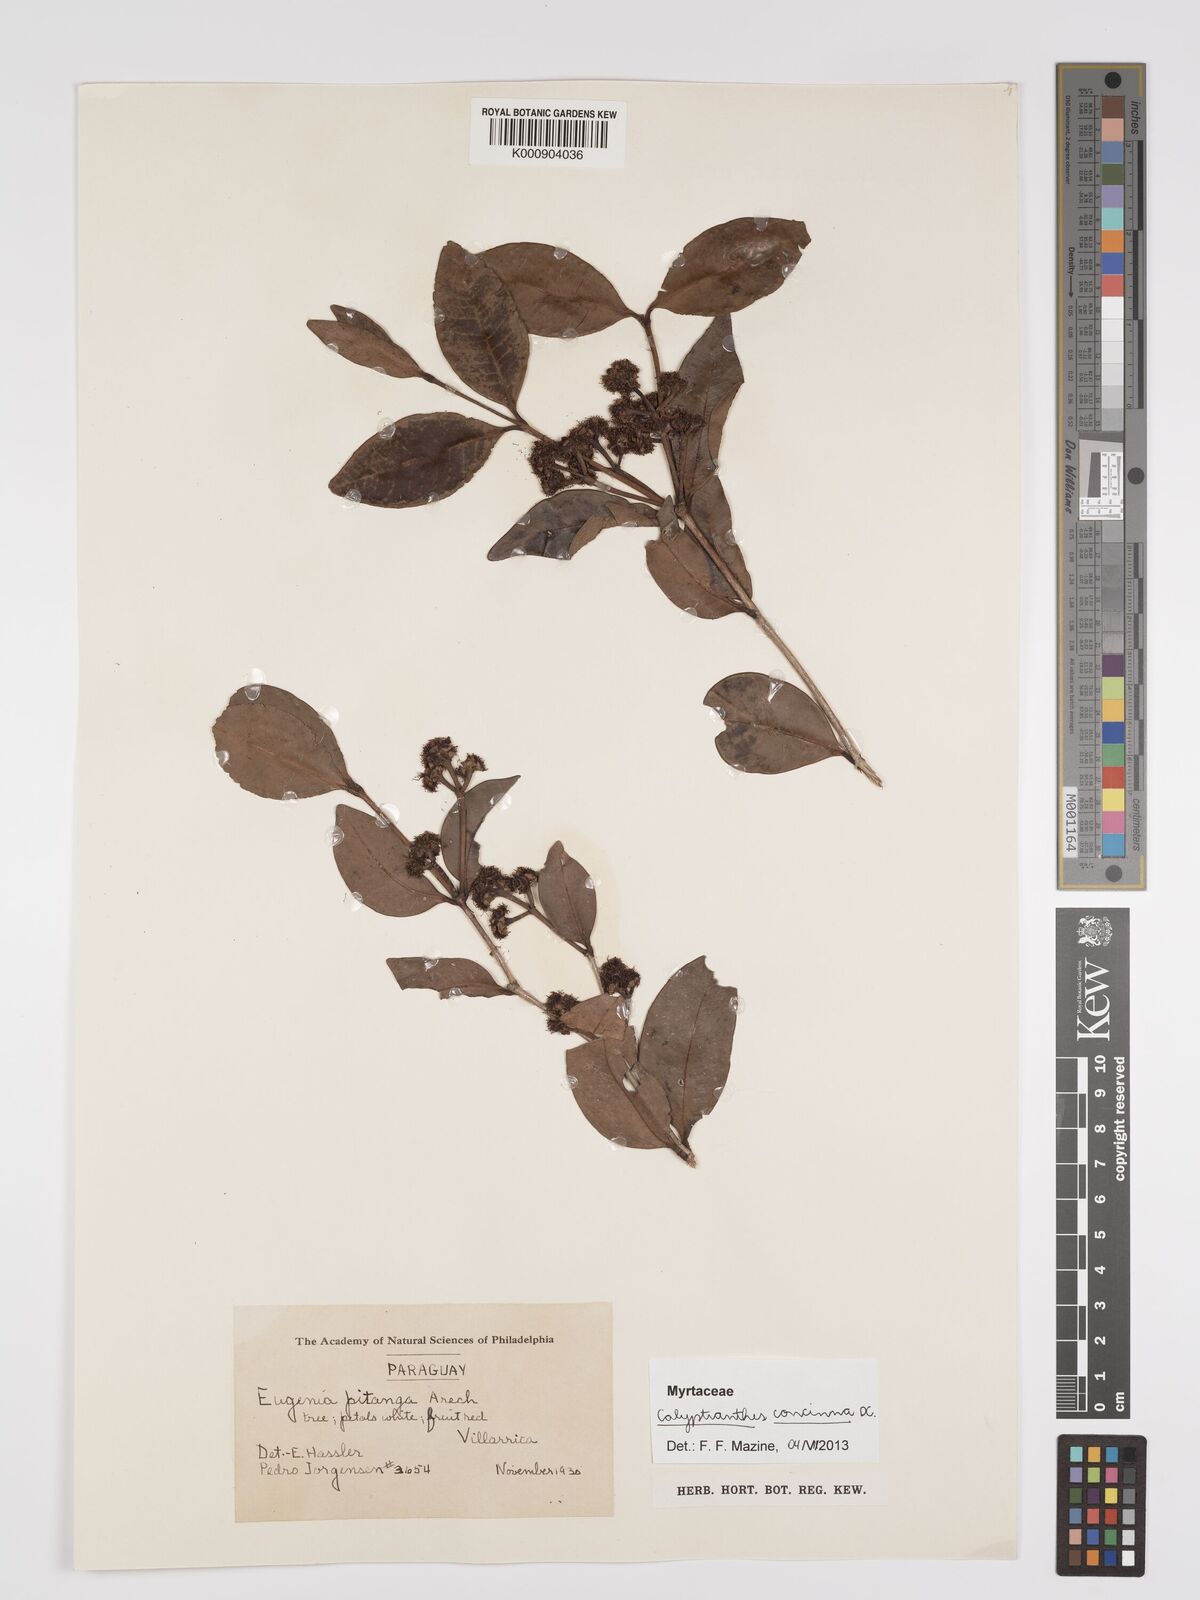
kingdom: Plantae
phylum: Tracheophyta
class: Magnoliopsida
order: Myrtales
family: Myrtaceae
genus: Myrcia
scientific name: Myrcia cruciflora
